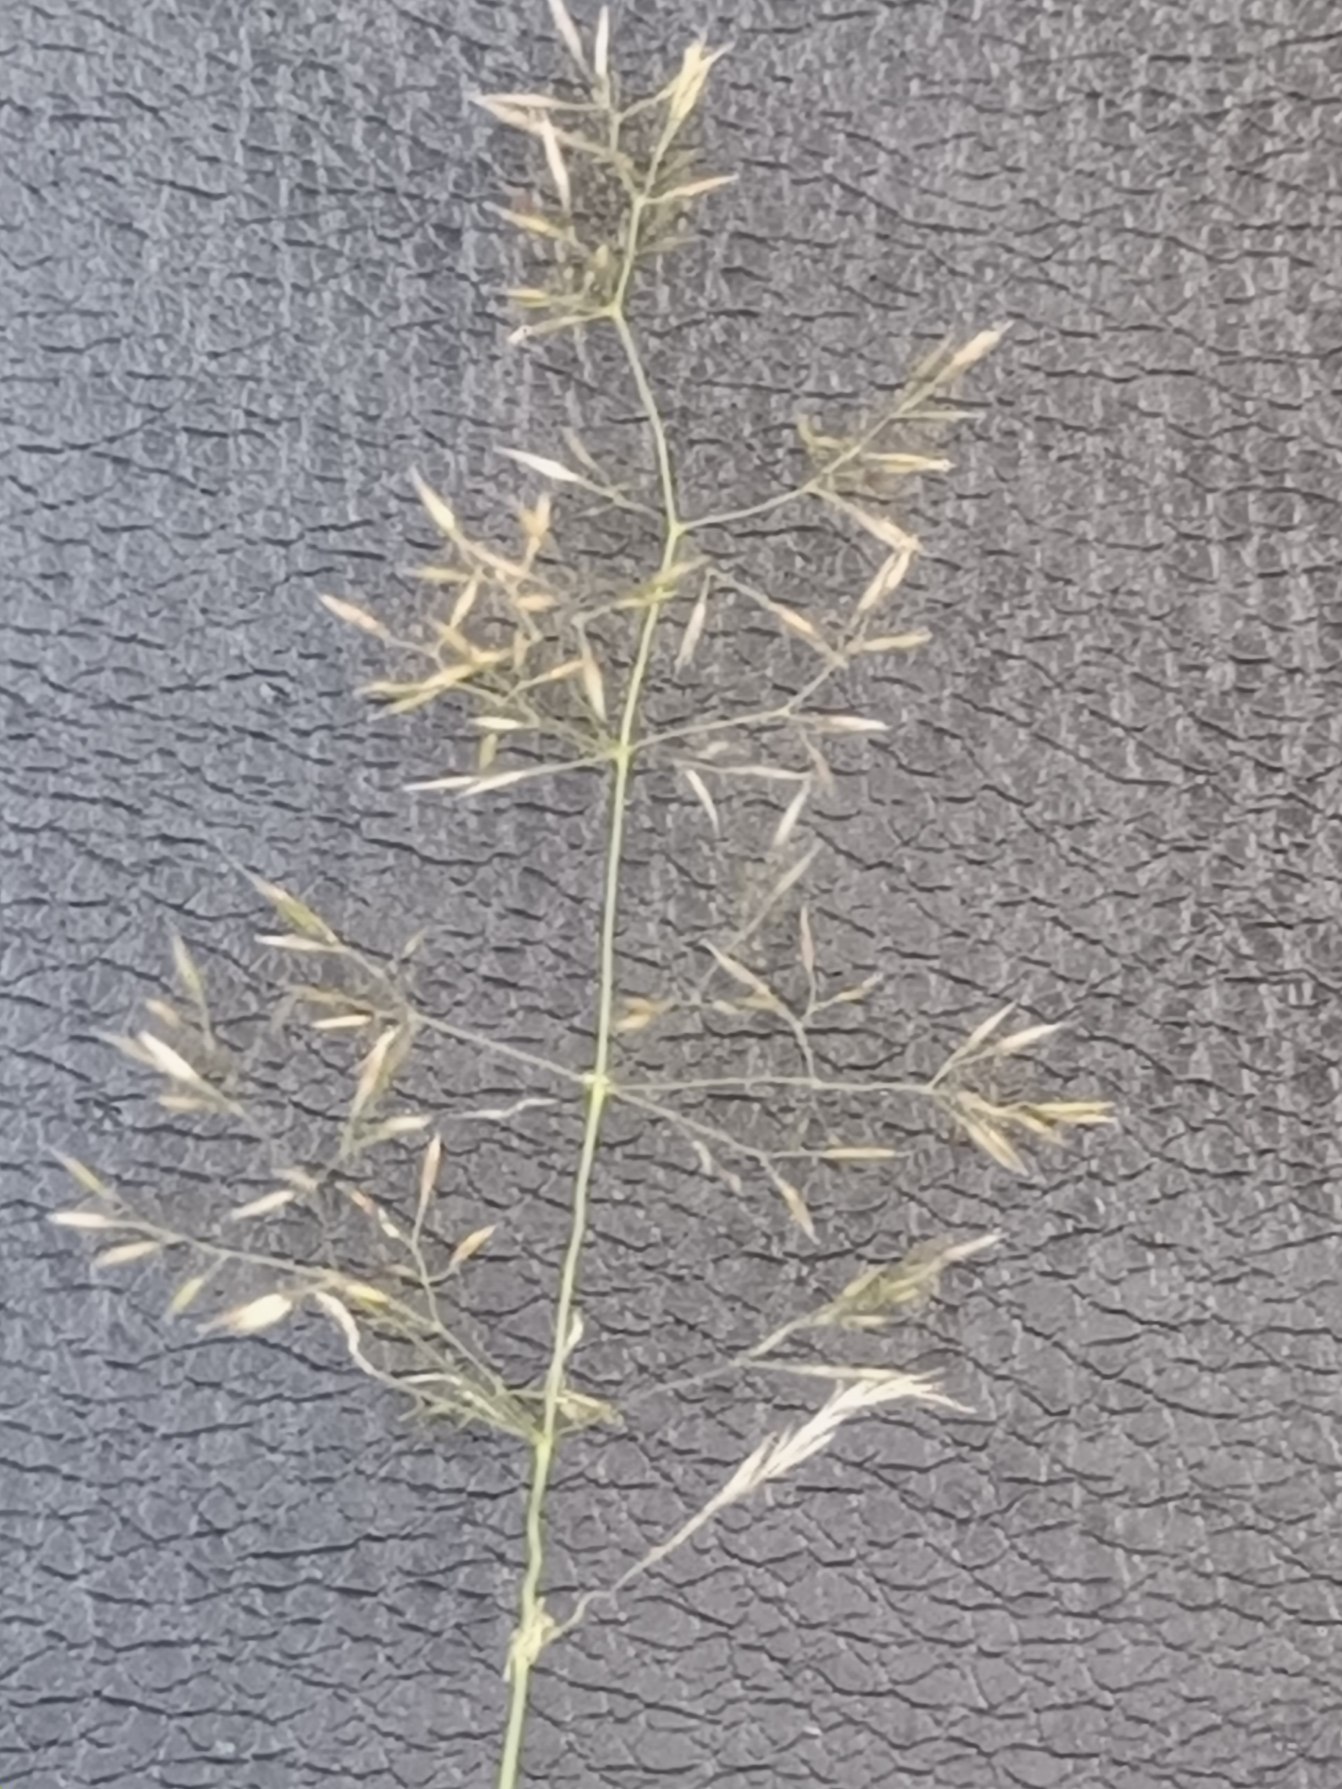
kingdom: Plantae
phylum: Tracheophyta
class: Liliopsida
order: Poales
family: Poaceae
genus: Agrostis
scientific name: Agrostis capillaris
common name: Almindelig hvene
